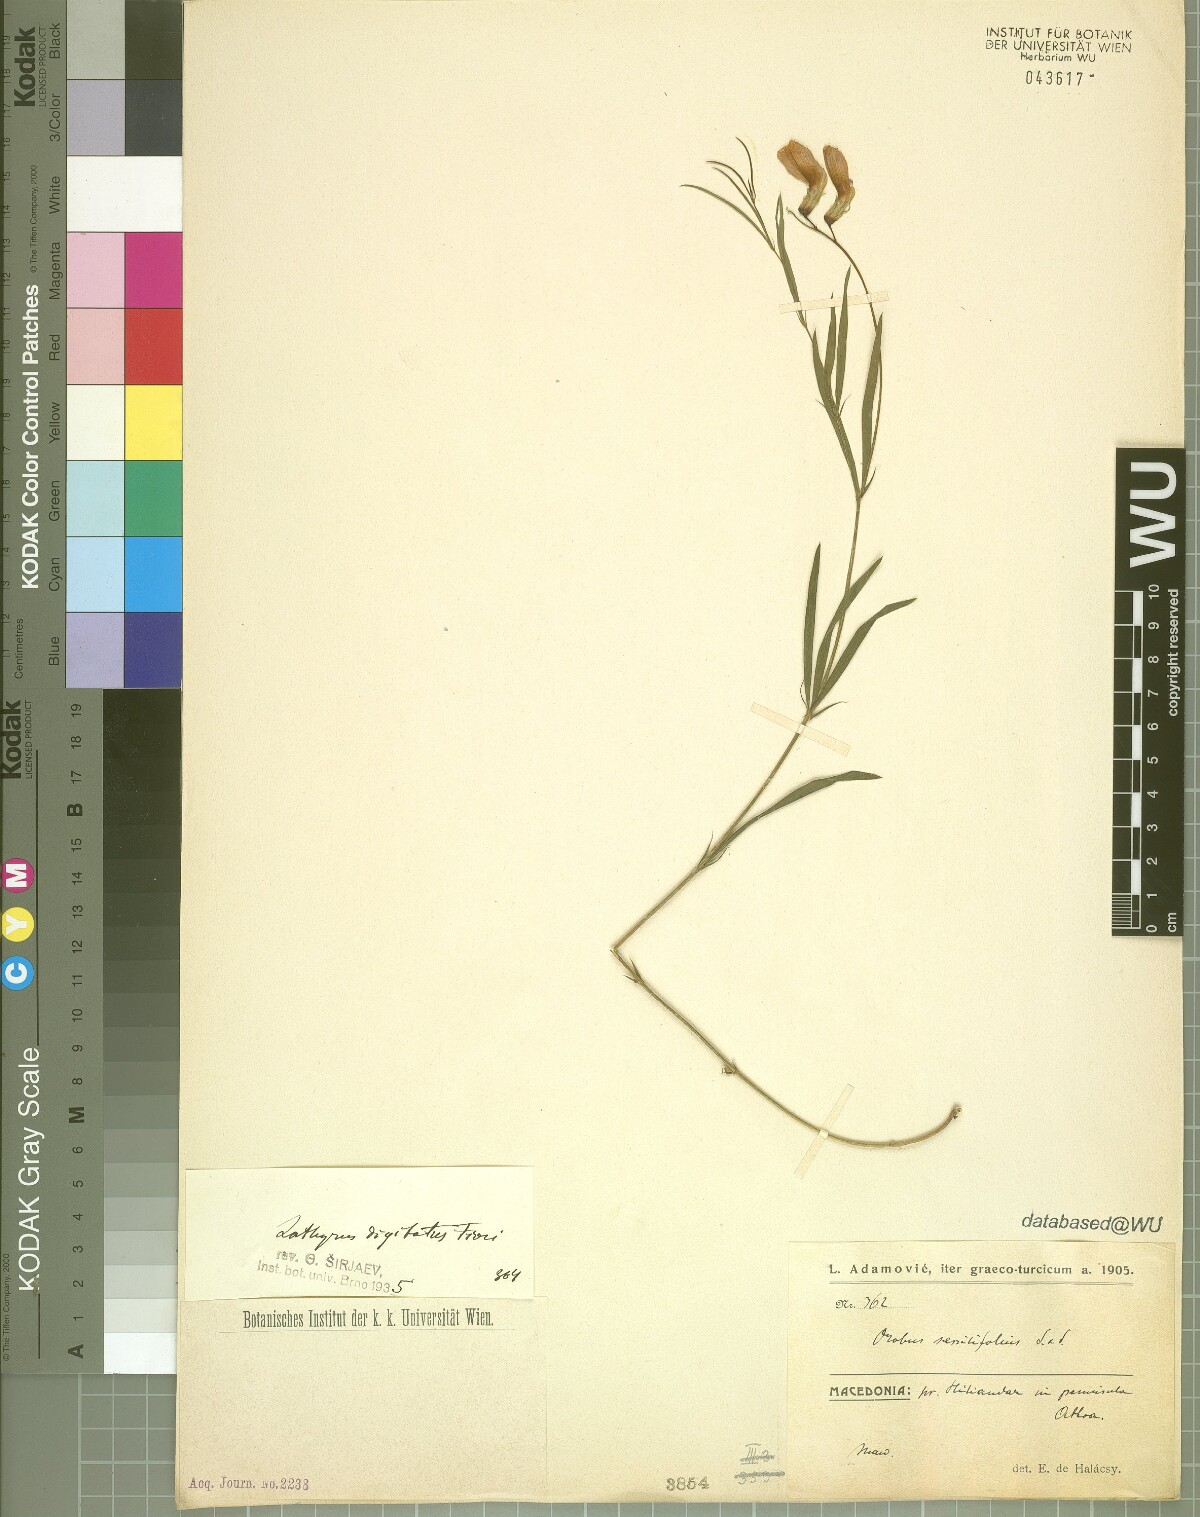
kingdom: Plantae
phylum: Tracheophyta
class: Magnoliopsida
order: Fabales
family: Fabaceae
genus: Lathyrus
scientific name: Lathyrus digitatus
